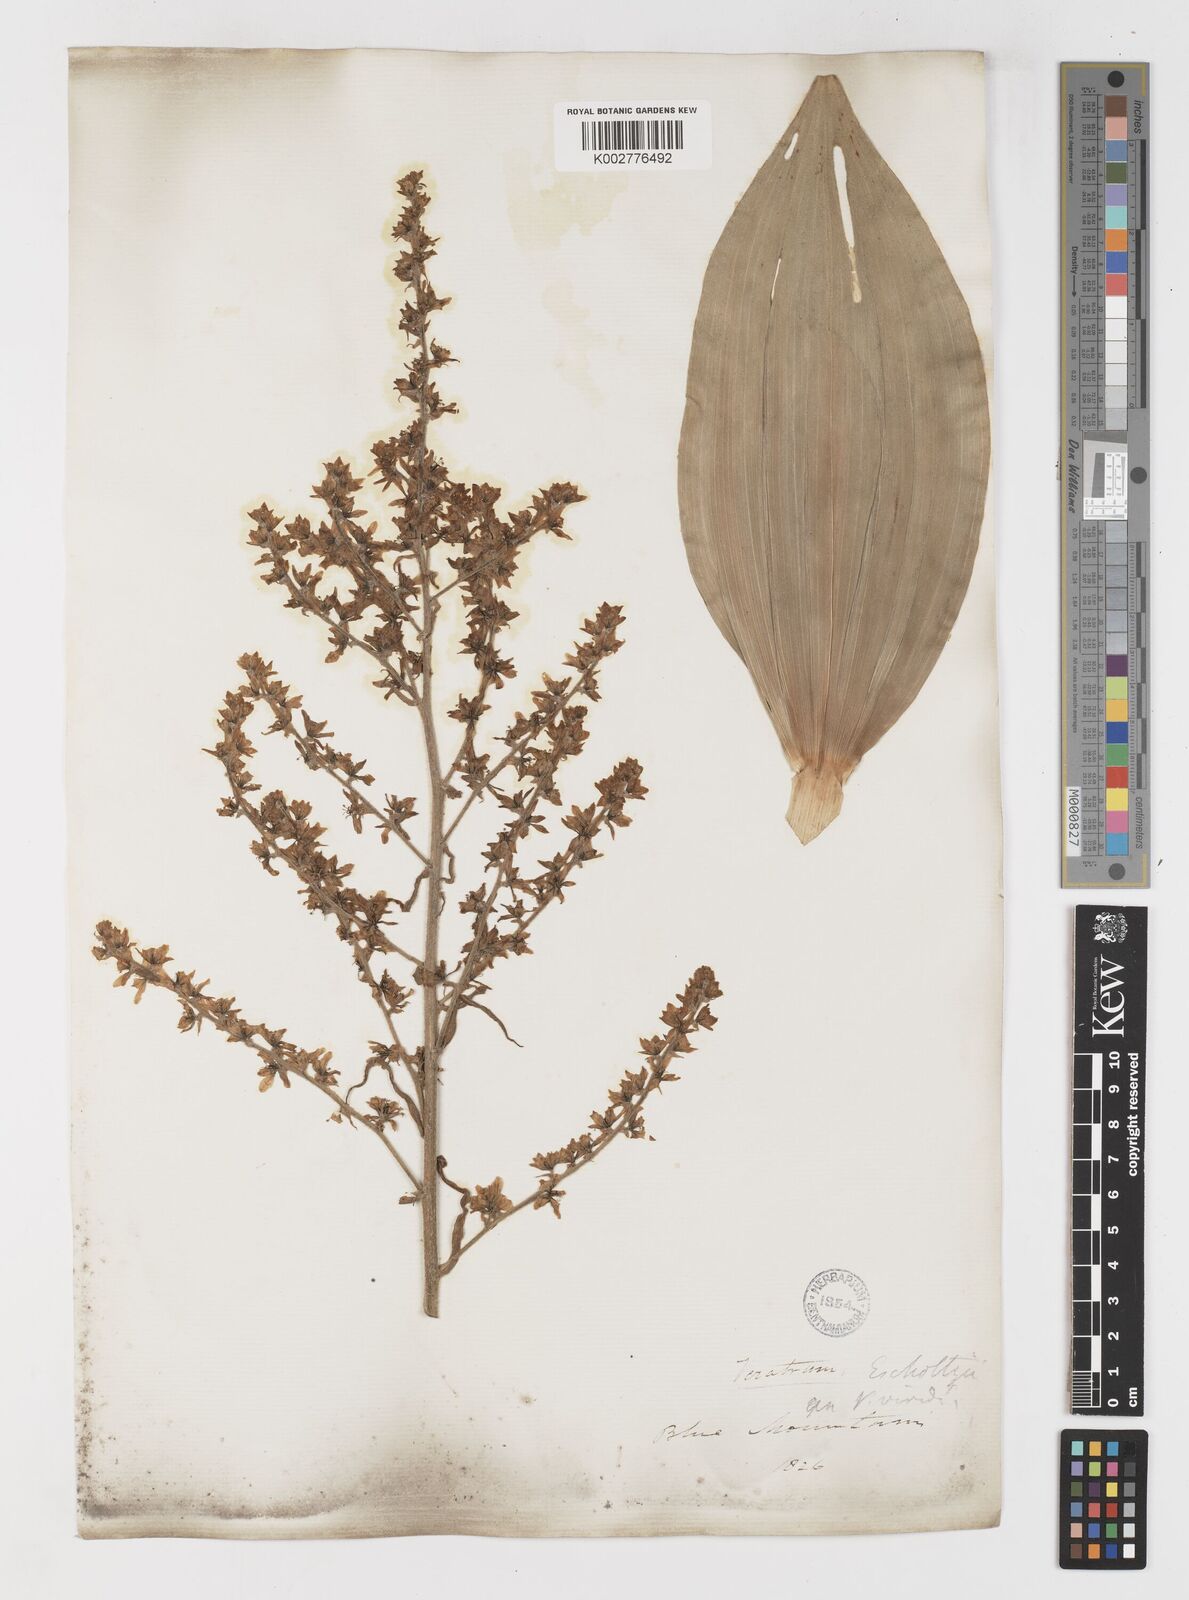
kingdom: Plantae
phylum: Tracheophyta
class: Liliopsida
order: Liliales
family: Melanthiaceae
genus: Veratrum
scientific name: Veratrum viride
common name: American false hellebore
